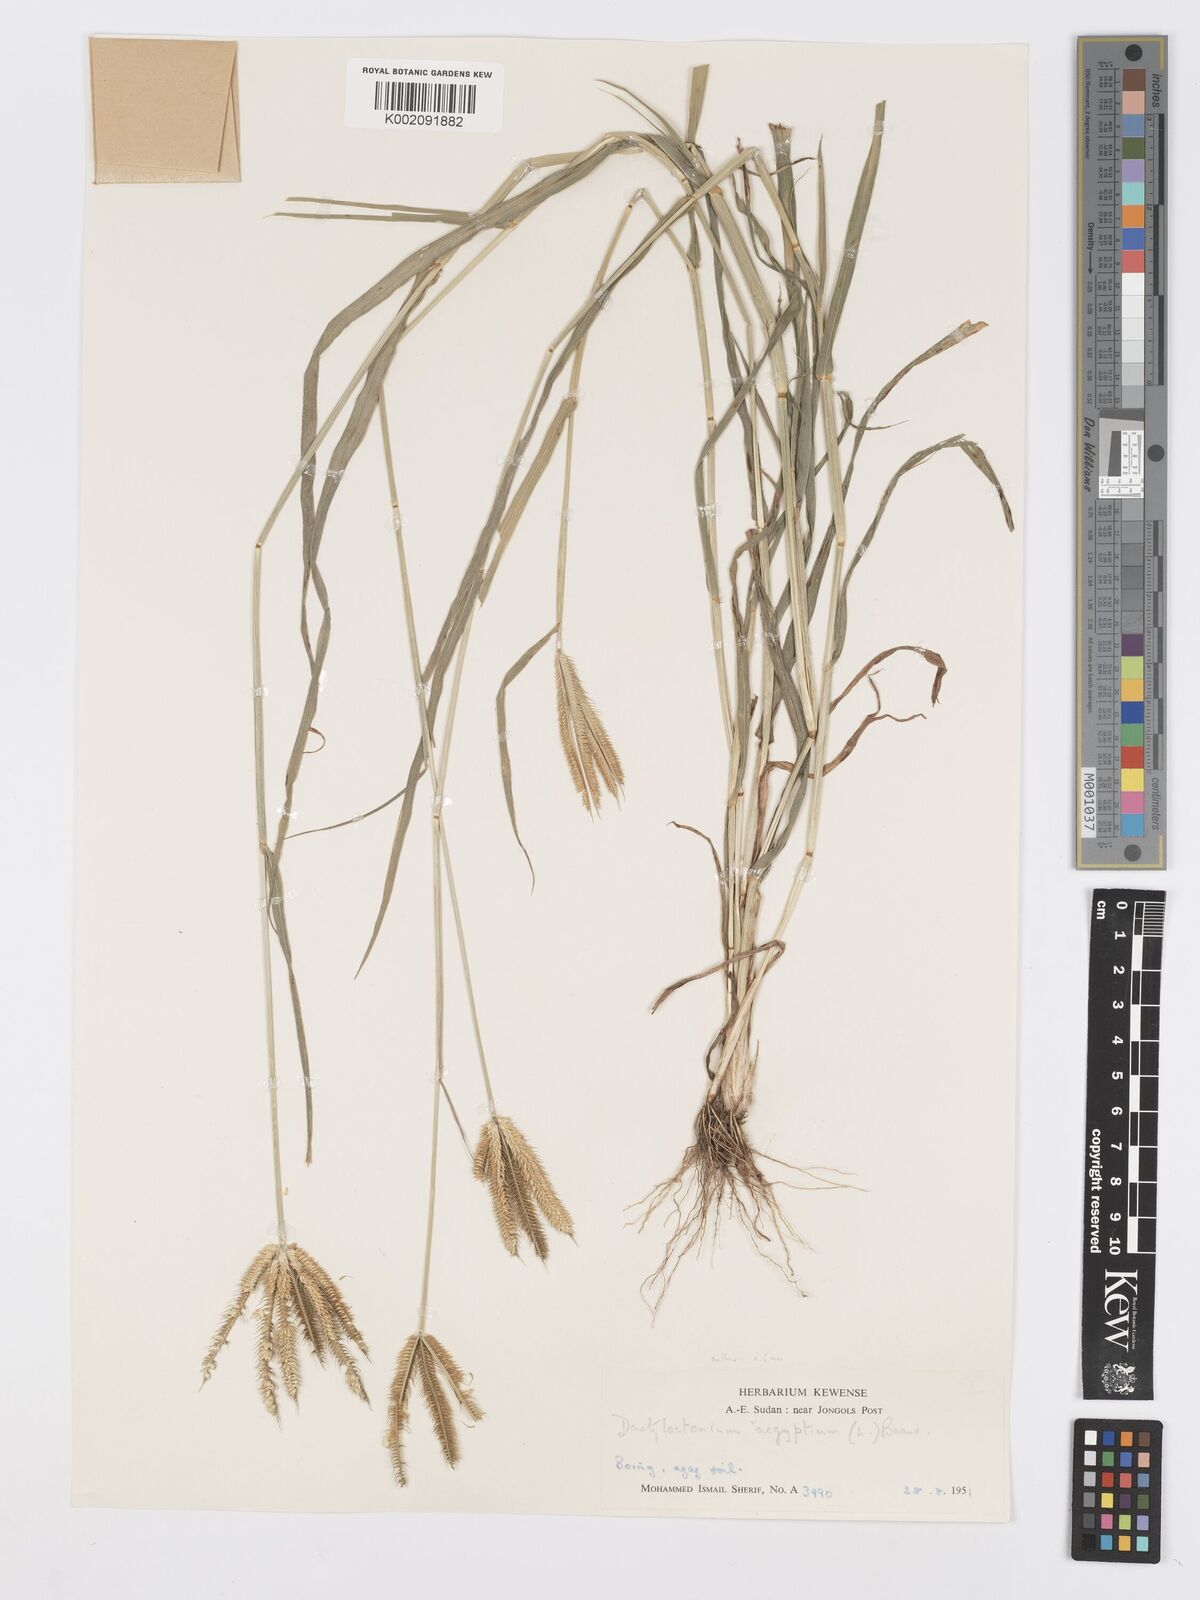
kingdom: Plantae
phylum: Tracheophyta
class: Liliopsida
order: Poales
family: Poaceae
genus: Dactyloctenium
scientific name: Dactyloctenium aegyptium
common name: Egyptian grass
